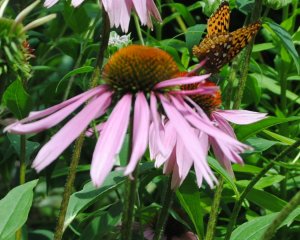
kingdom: Animalia
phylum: Arthropoda
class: Insecta
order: Lepidoptera
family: Nymphalidae
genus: Speyeria
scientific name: Speyeria
